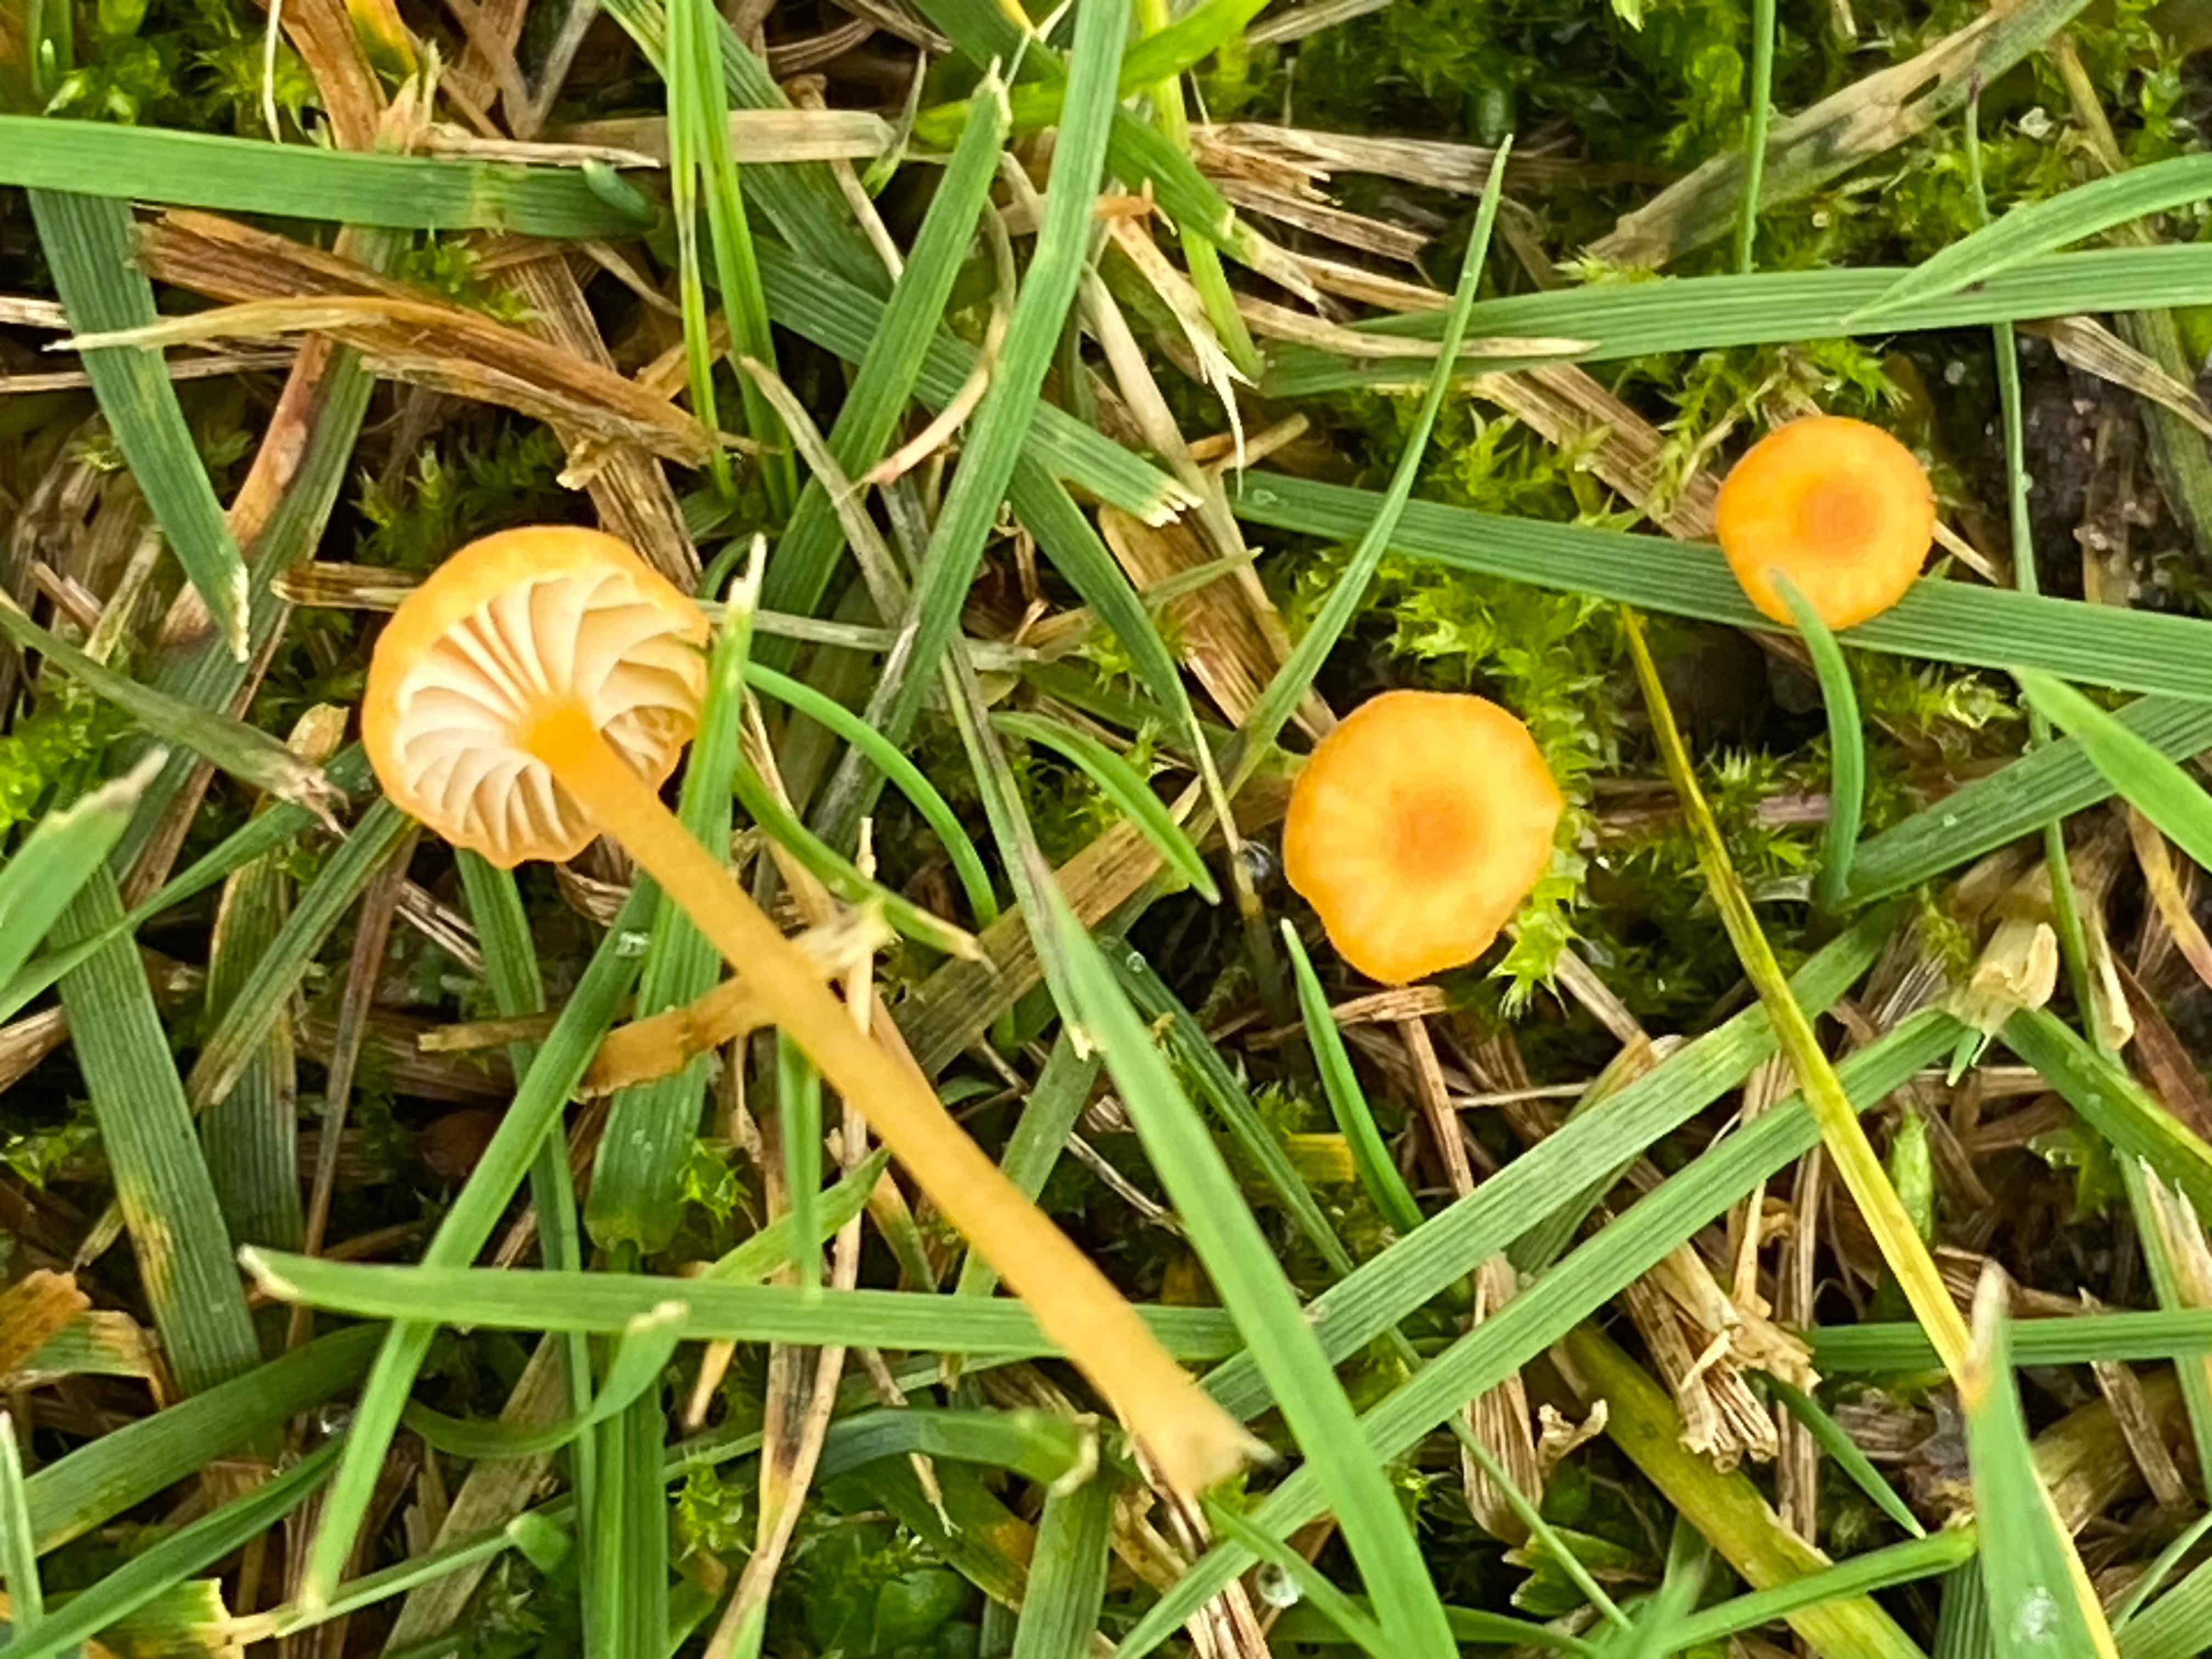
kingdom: Fungi
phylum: Basidiomycota
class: Agaricomycetes
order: Hymenochaetales
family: Rickenellaceae
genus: Rickenella
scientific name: Rickenella fibula
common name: orange mosnavlehat
